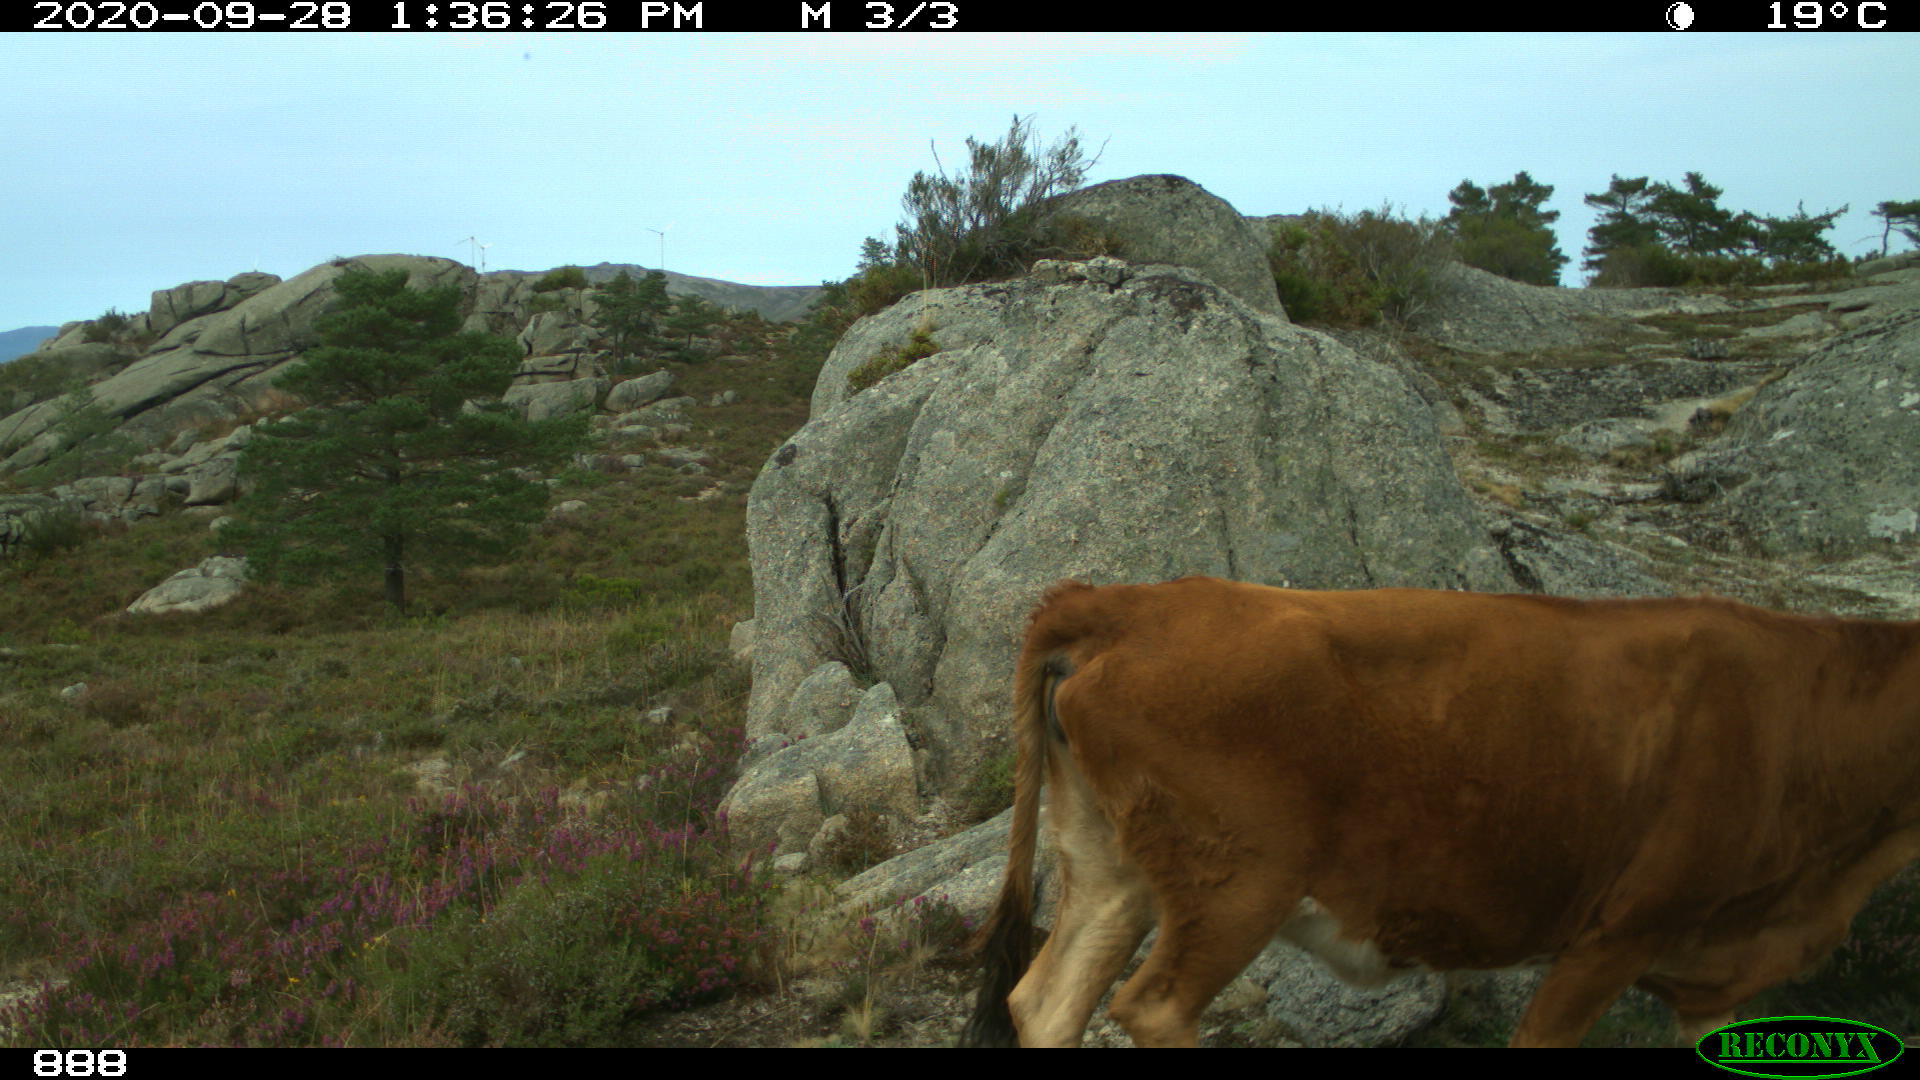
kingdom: Animalia
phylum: Chordata
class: Mammalia
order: Artiodactyla
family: Bovidae
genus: Bos
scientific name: Bos taurus
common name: Domesticated cattle
